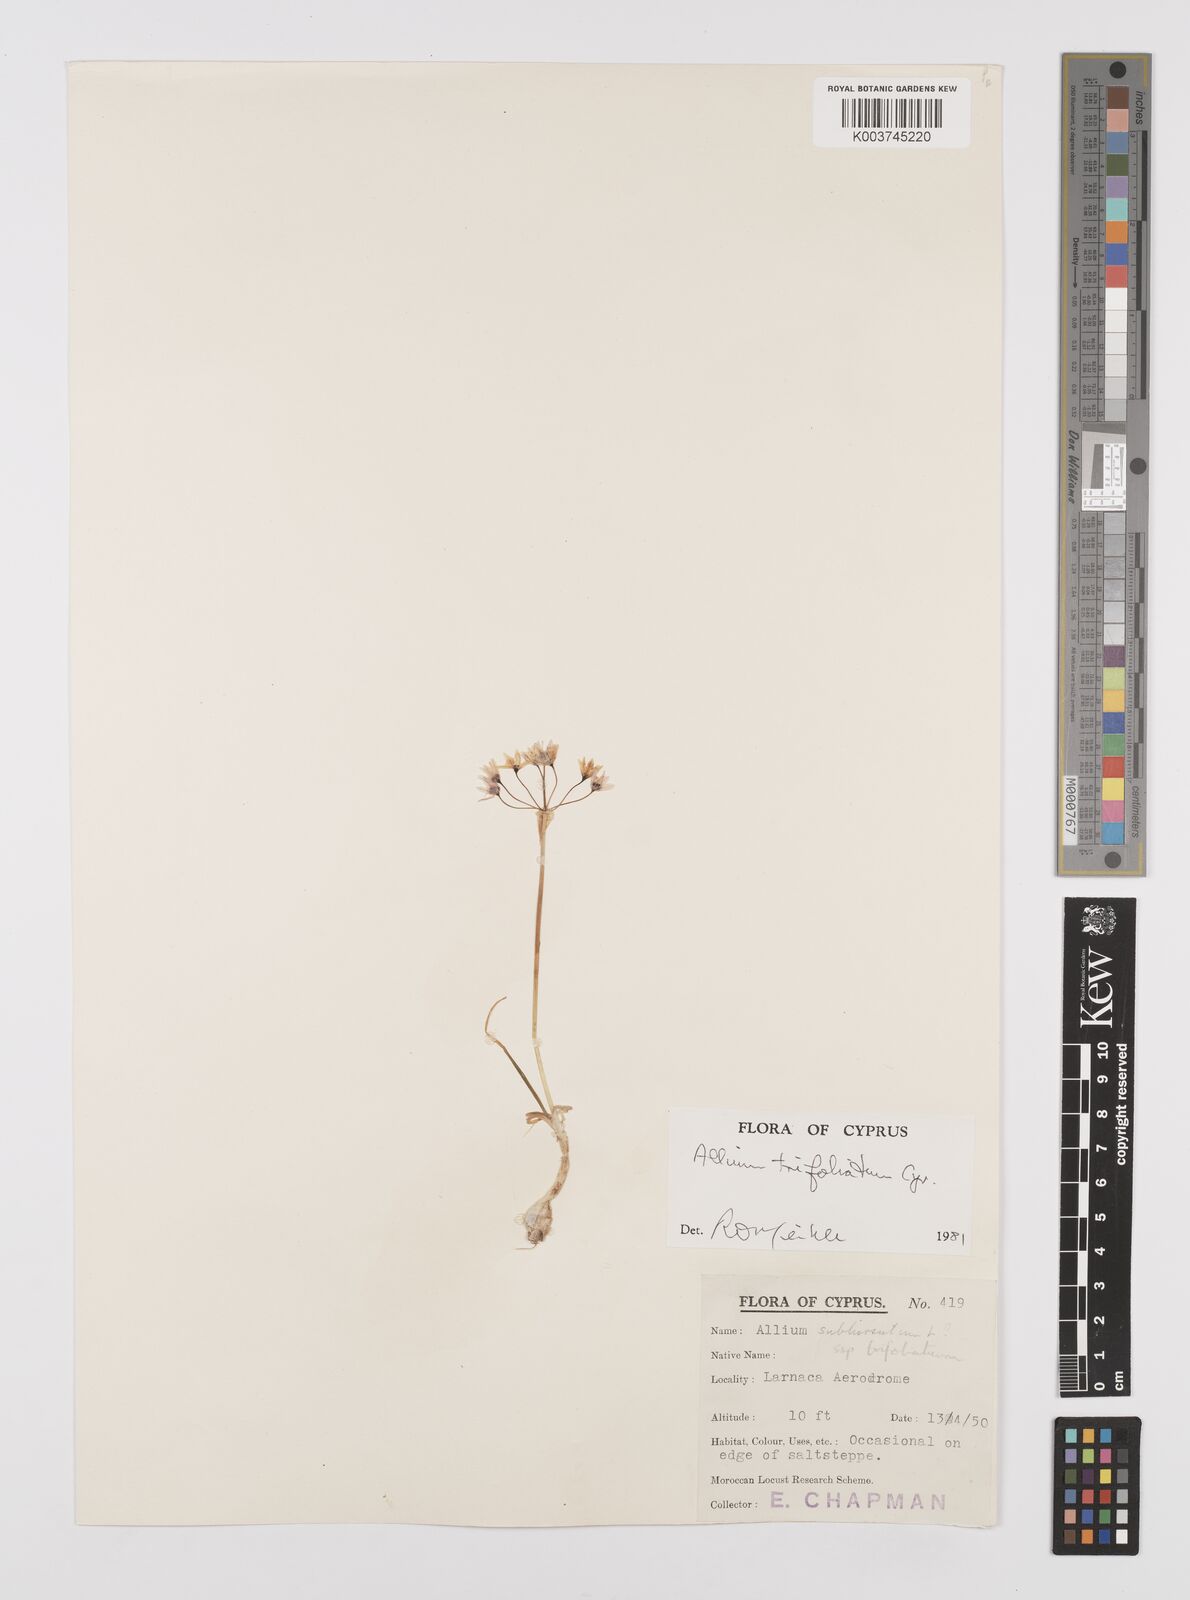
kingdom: Plantae
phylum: Tracheophyta
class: Liliopsida
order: Asparagales
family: Amaryllidaceae
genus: Allium
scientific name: Allium trifoliatum
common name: Pink garlic
